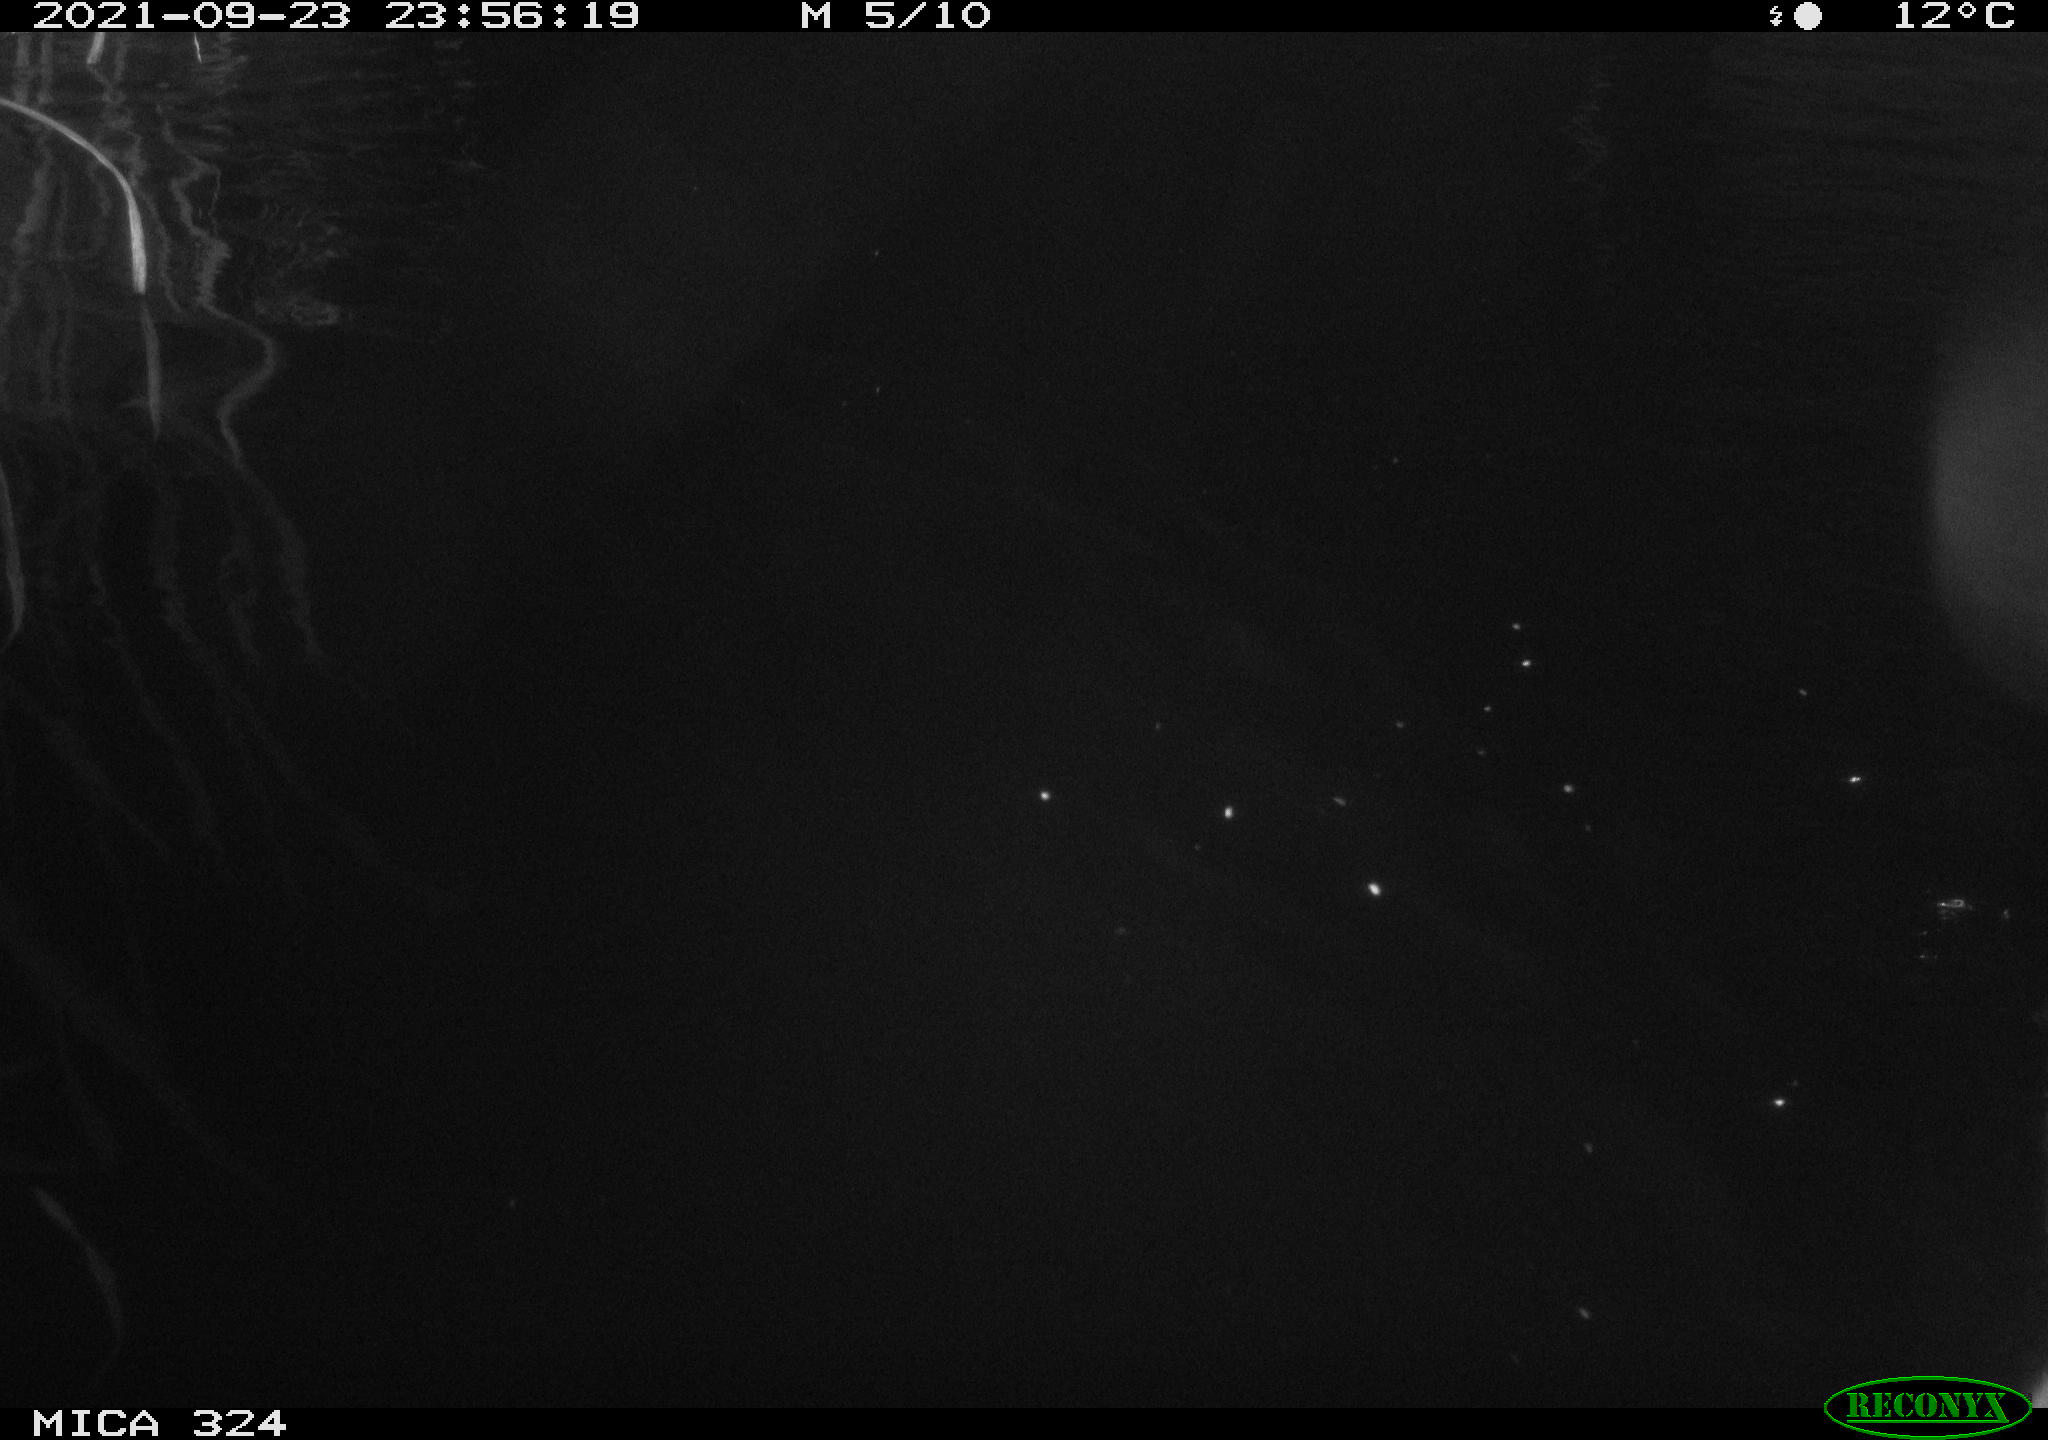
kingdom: Animalia
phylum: Chordata
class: Mammalia
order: Rodentia
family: Cricetidae
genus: Ondatra
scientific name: Ondatra zibethicus
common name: Muskrat
